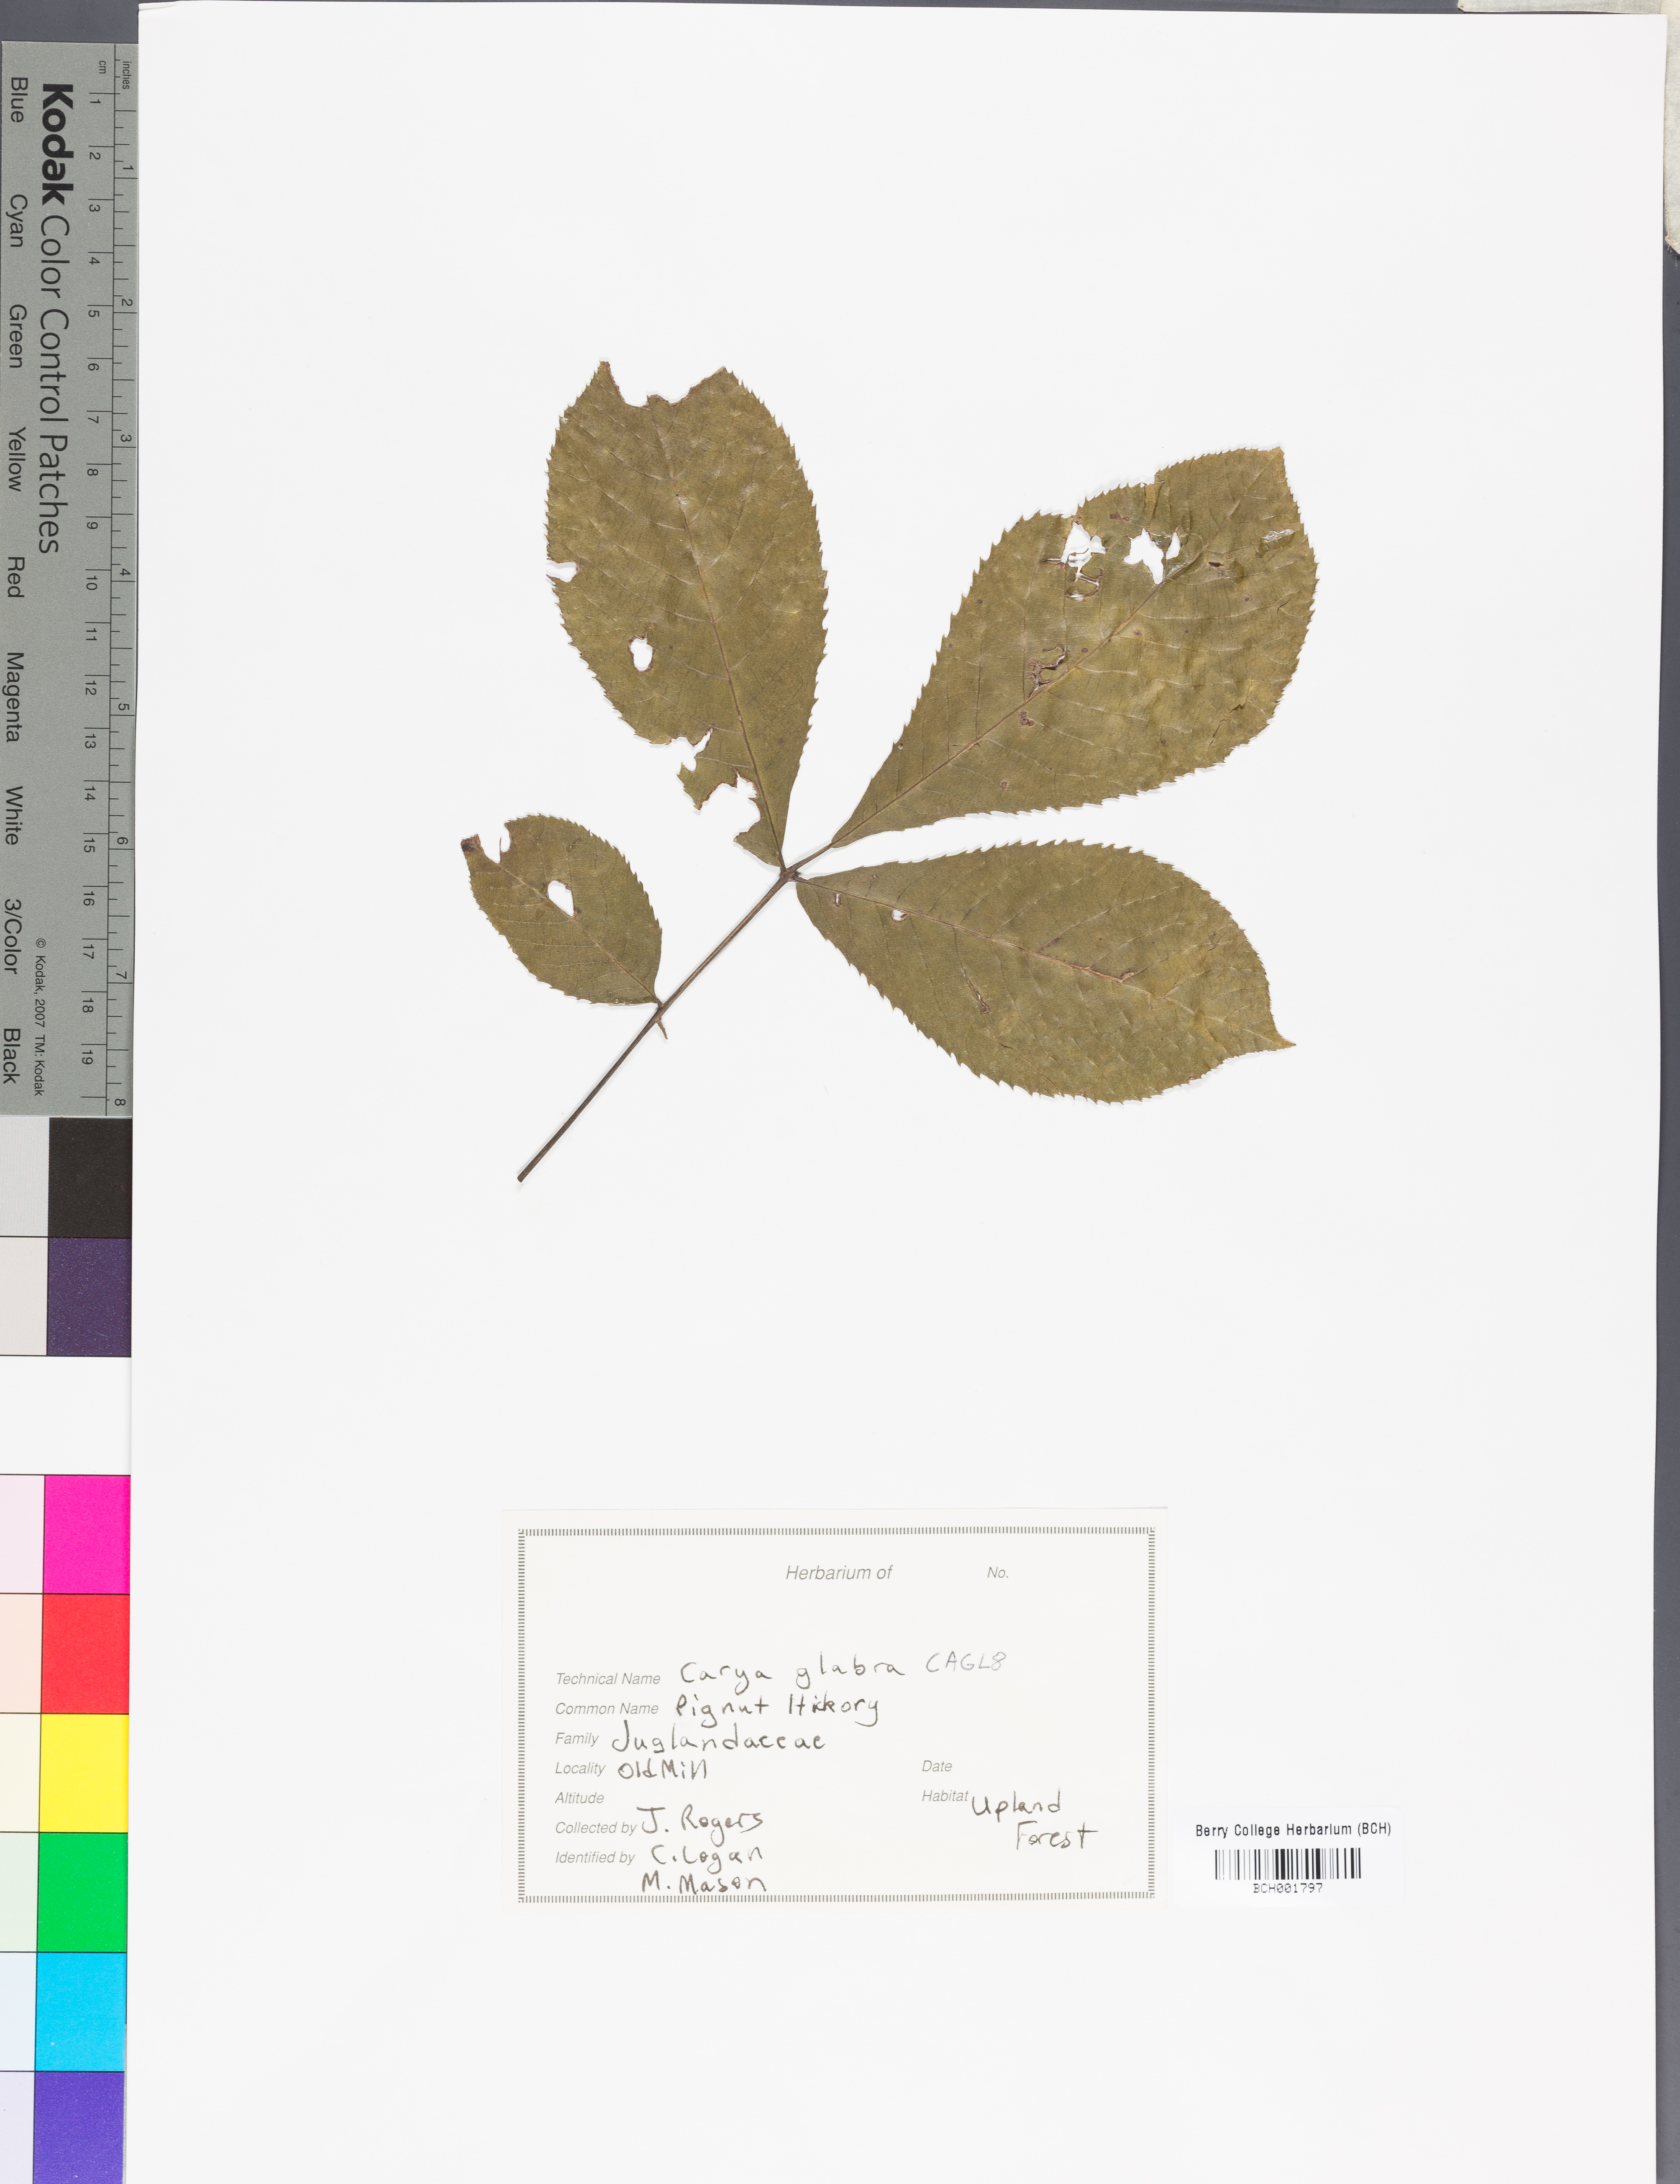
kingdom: Plantae
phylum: Tracheophyta
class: Magnoliopsida
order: Fagales
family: Juglandaceae
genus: Carya
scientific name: Carya glabra
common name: Pignut hickory
